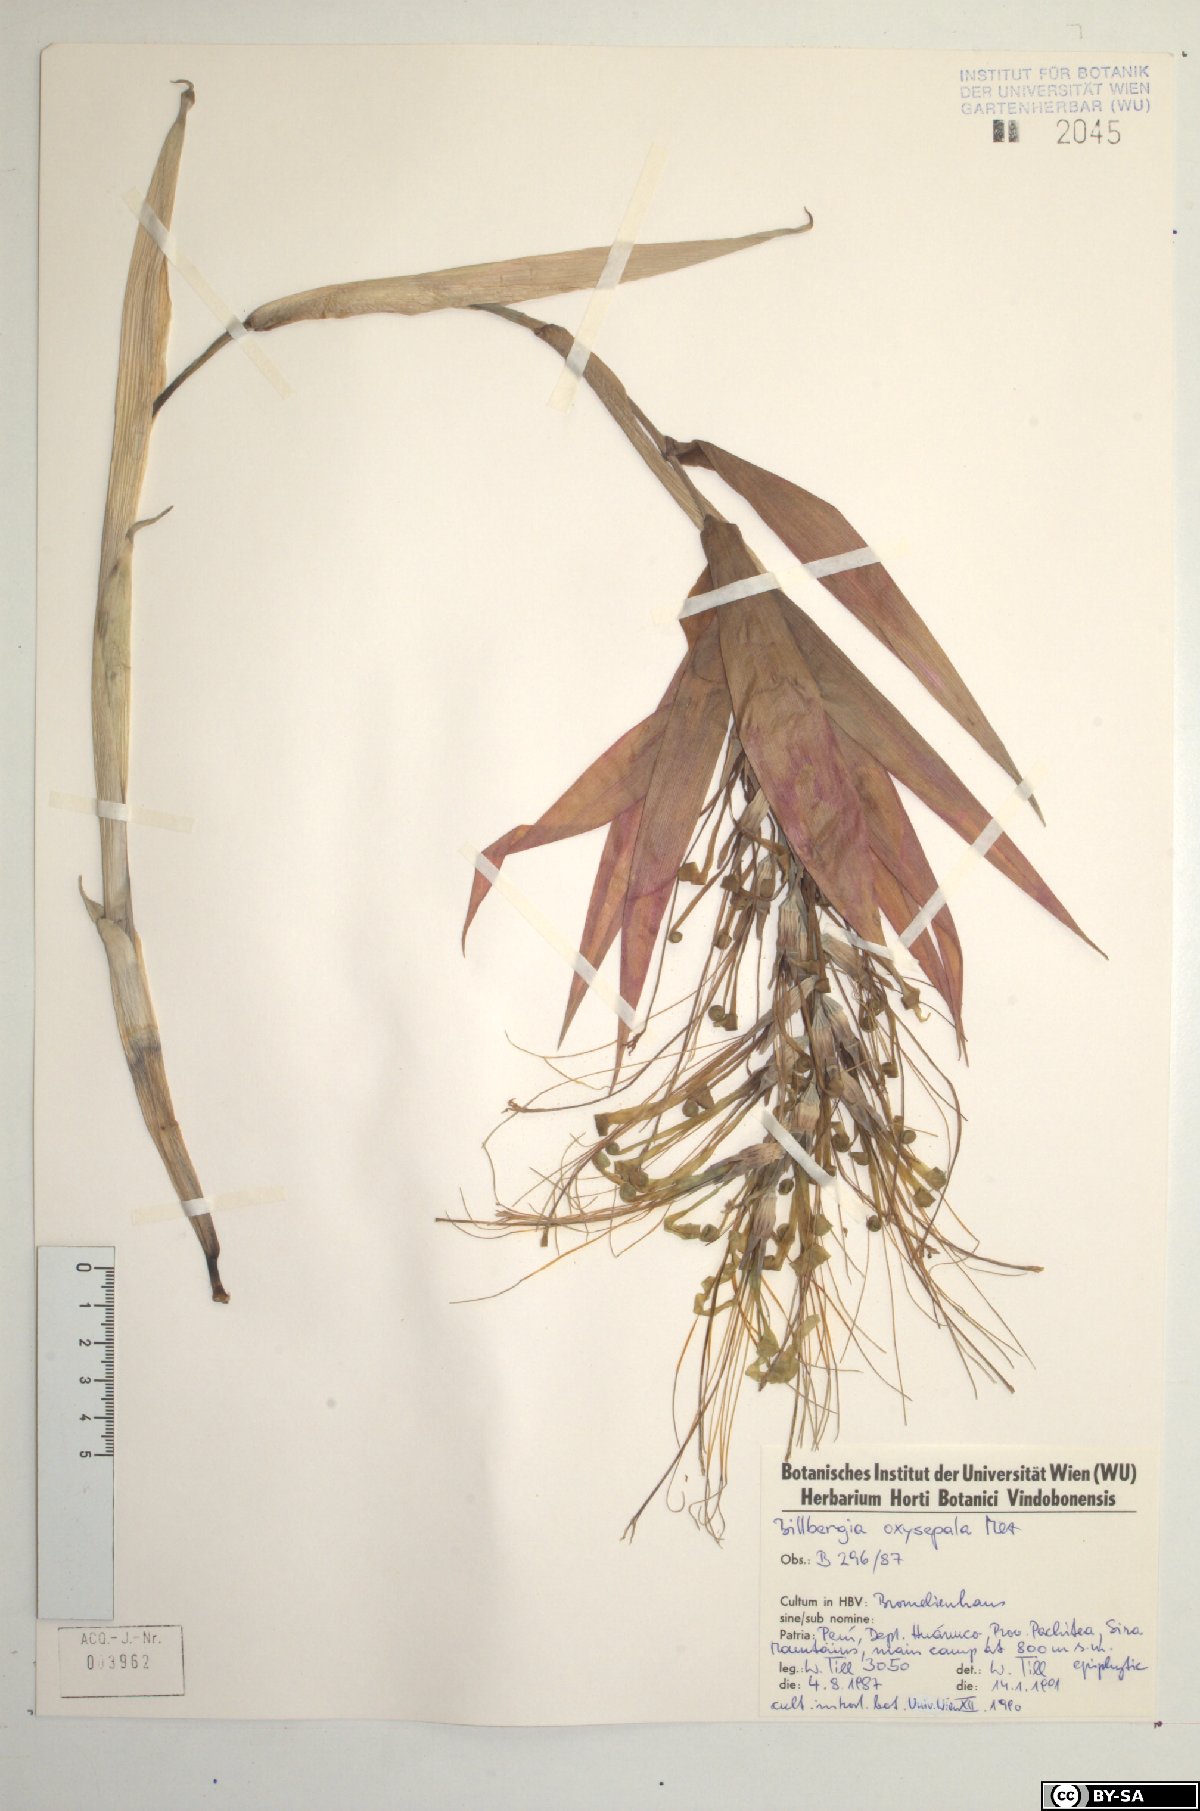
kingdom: Plantae
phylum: Tracheophyta
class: Liliopsida
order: Poales
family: Bromeliaceae
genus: Billbergia
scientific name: Billbergia oxysepala
